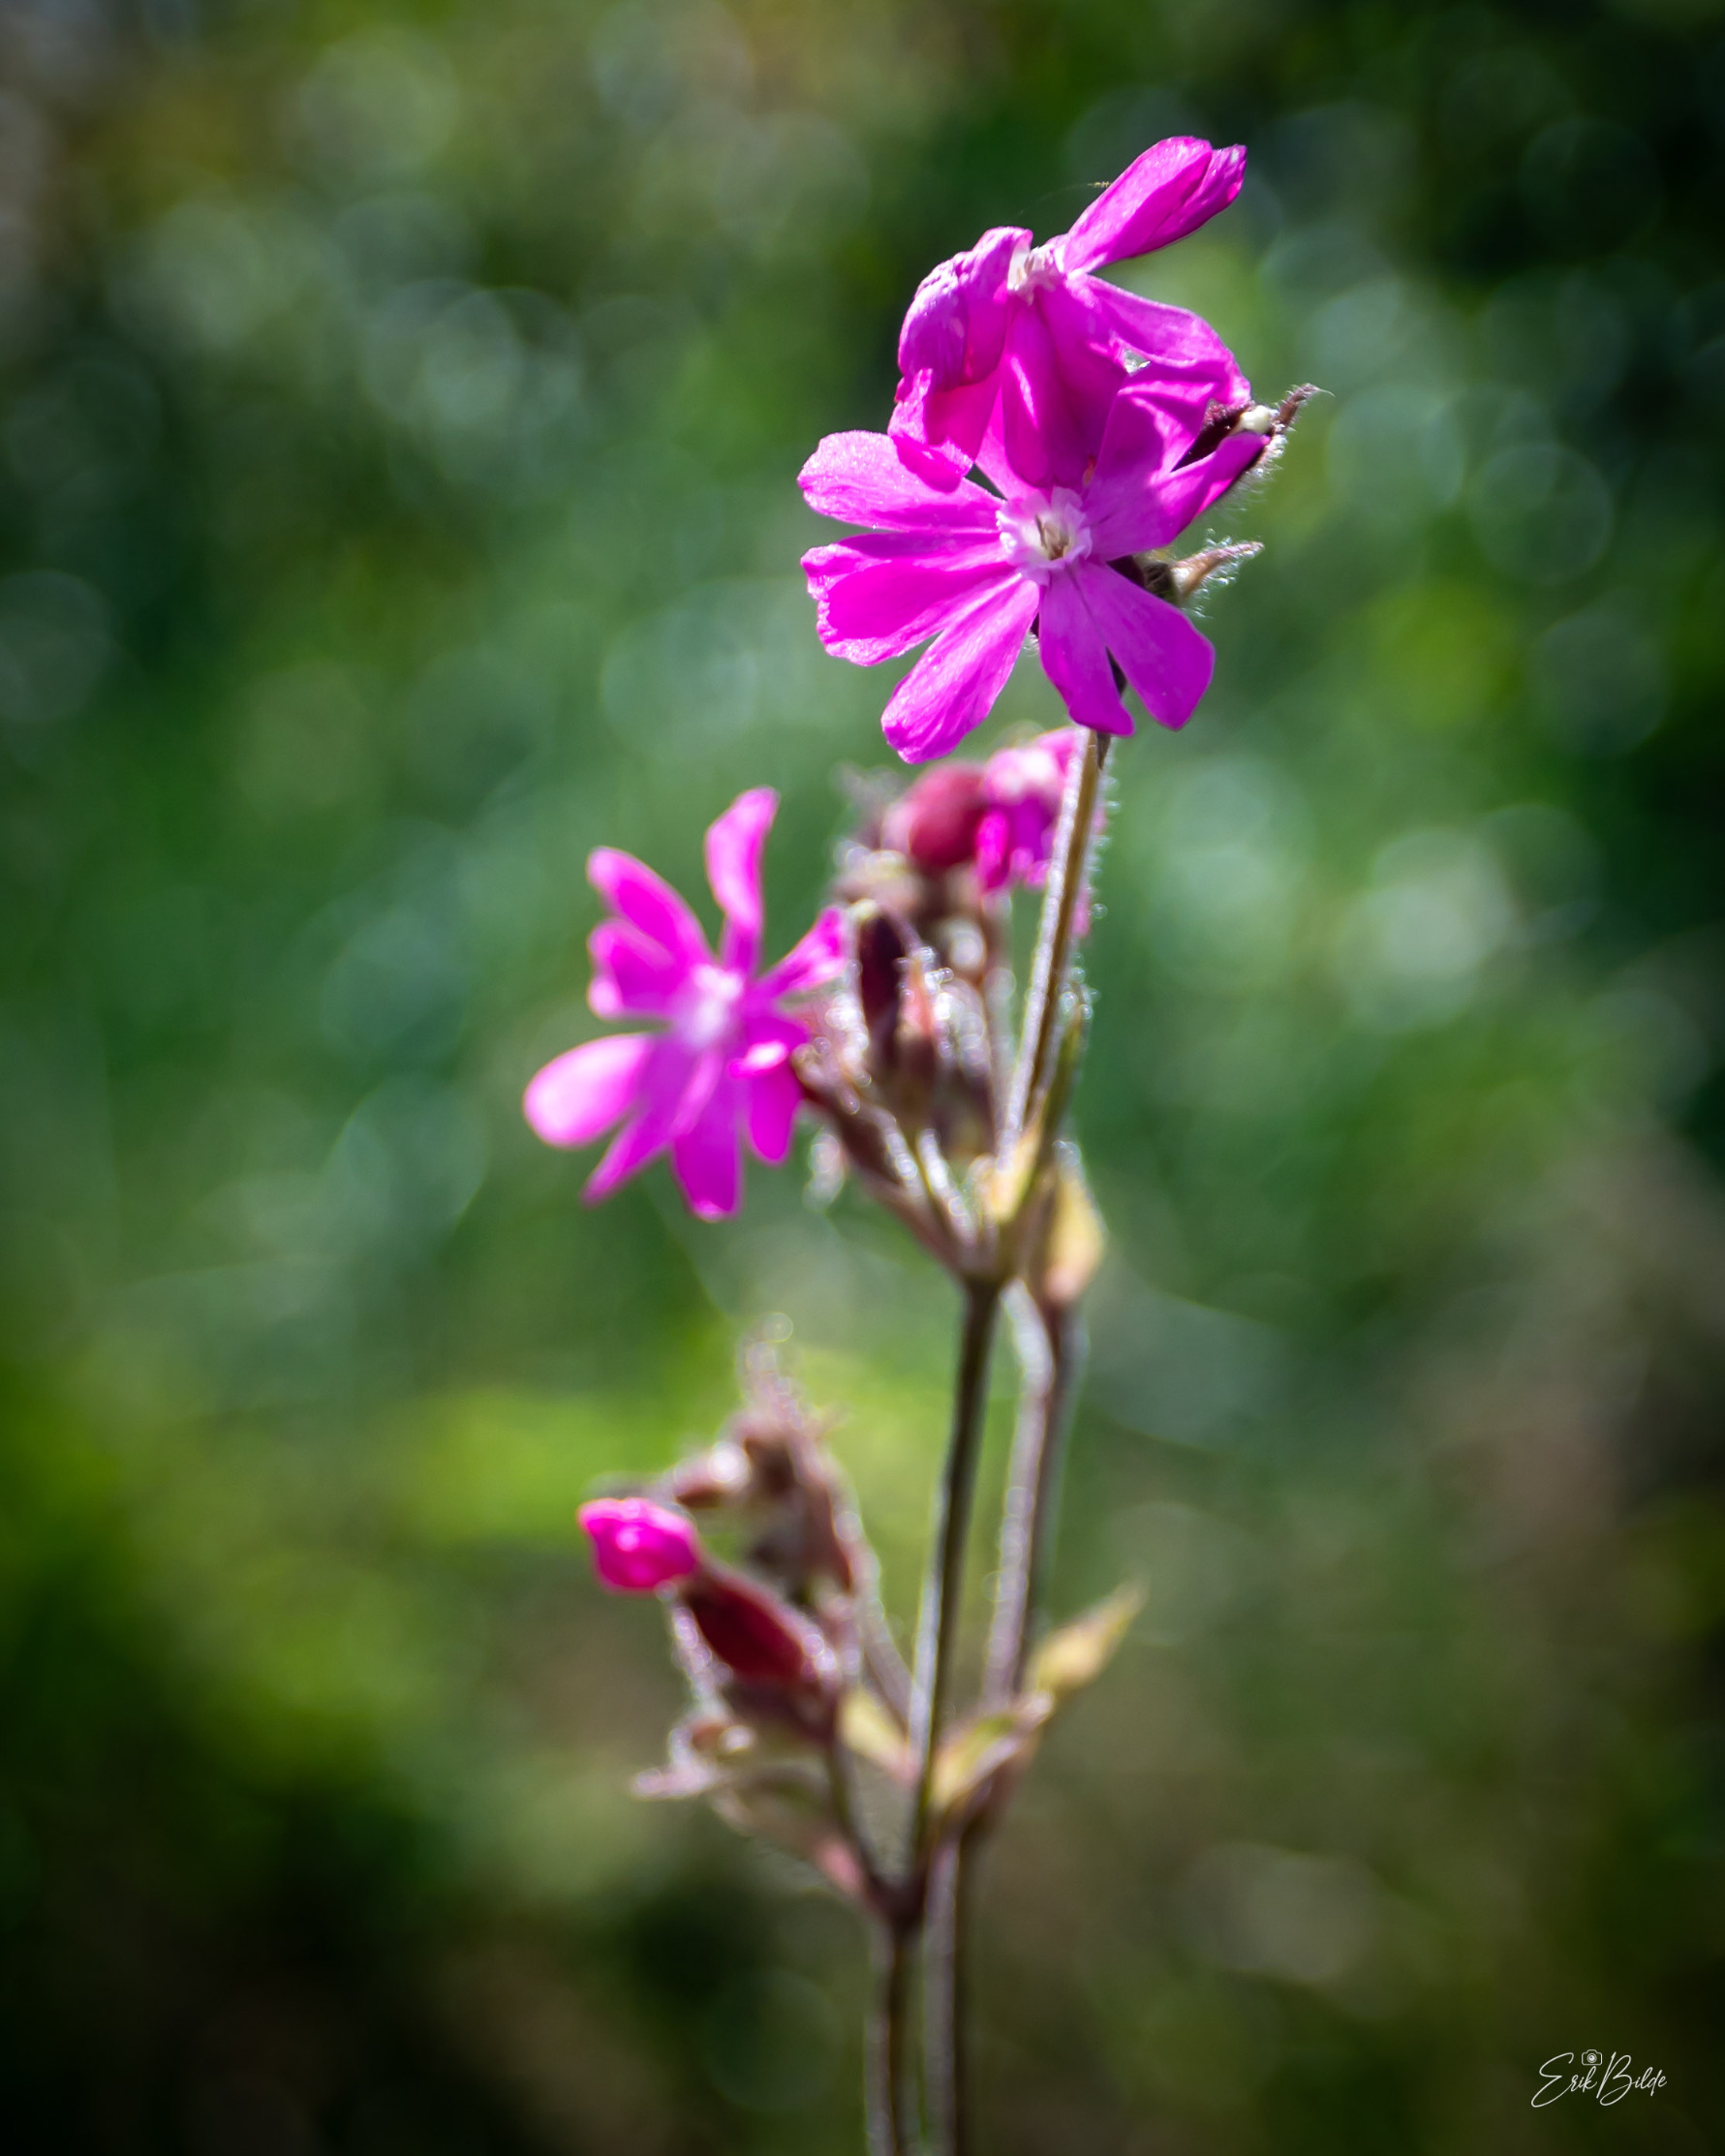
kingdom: Plantae
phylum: Tracheophyta
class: Magnoliopsida
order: Caryophyllales
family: Caryophyllaceae
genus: Silene
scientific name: Silene dioica
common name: Dagpragtstjerne
